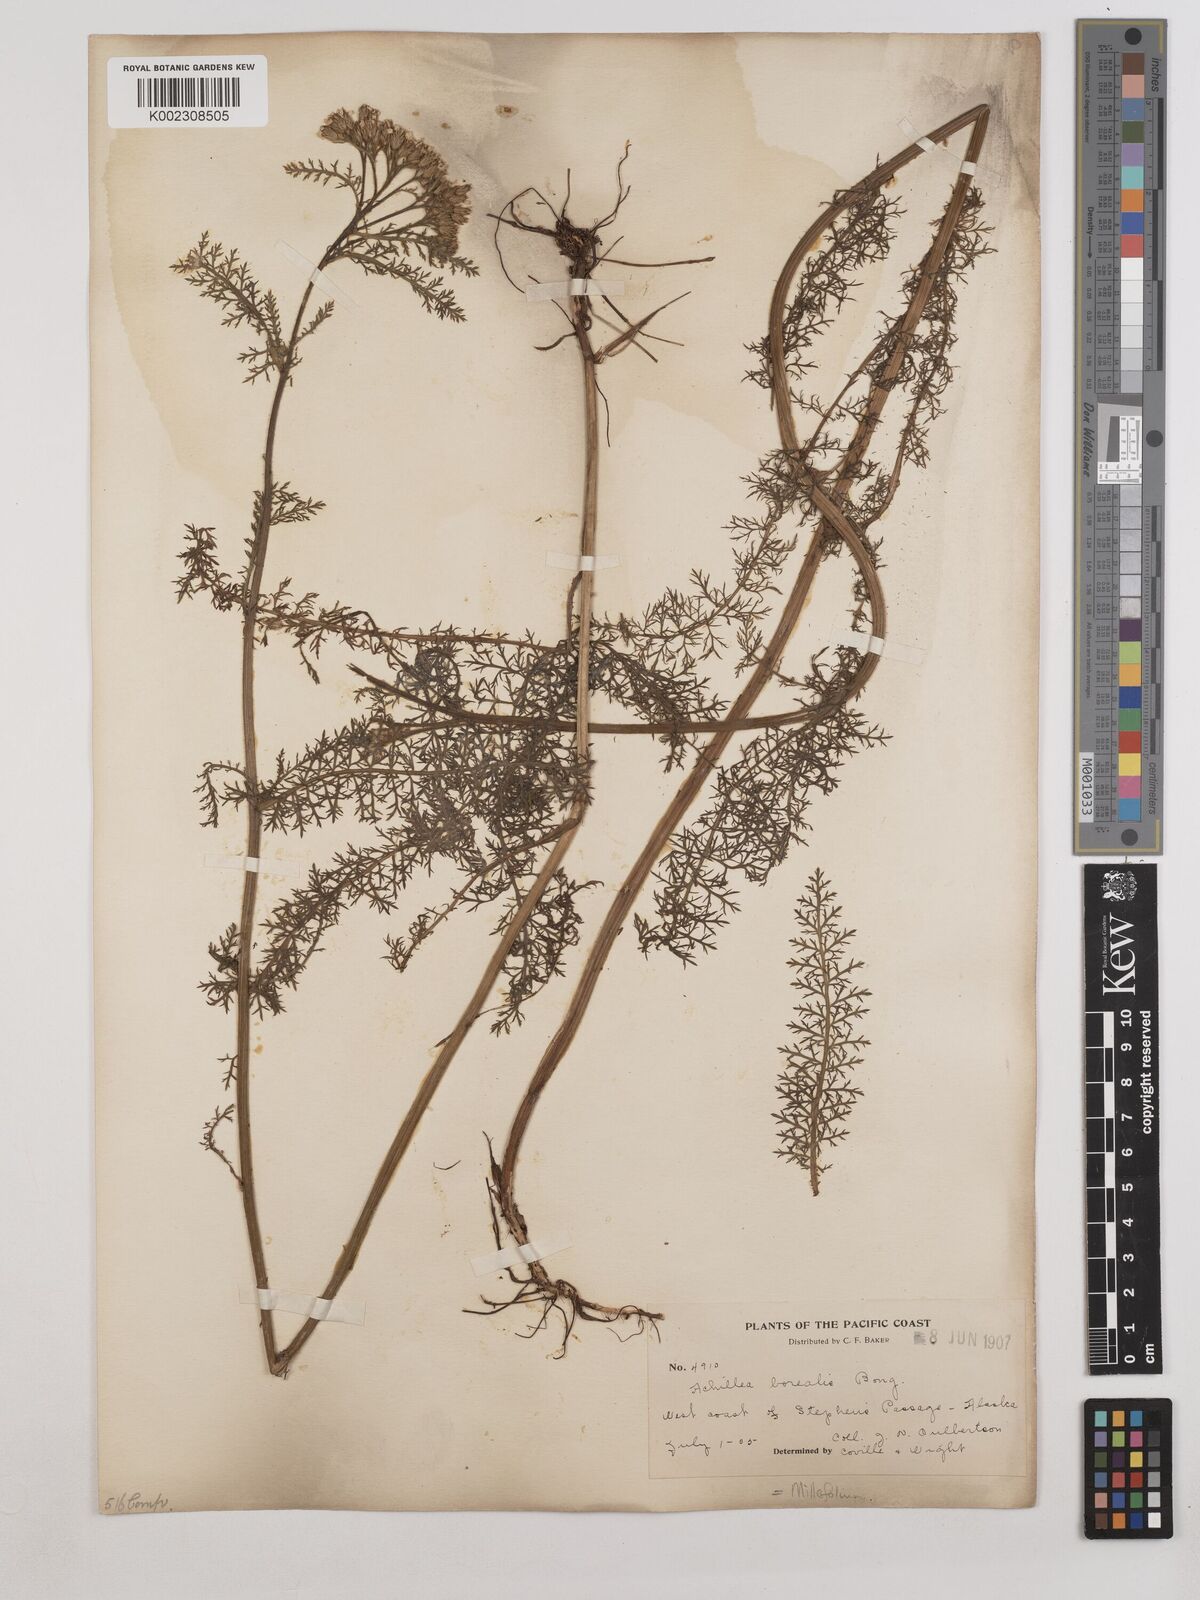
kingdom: Plantae
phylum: Tracheophyta
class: Magnoliopsida
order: Asterales
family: Asteraceae
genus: Achillea
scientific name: Achillea millefolium
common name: Yarrow
